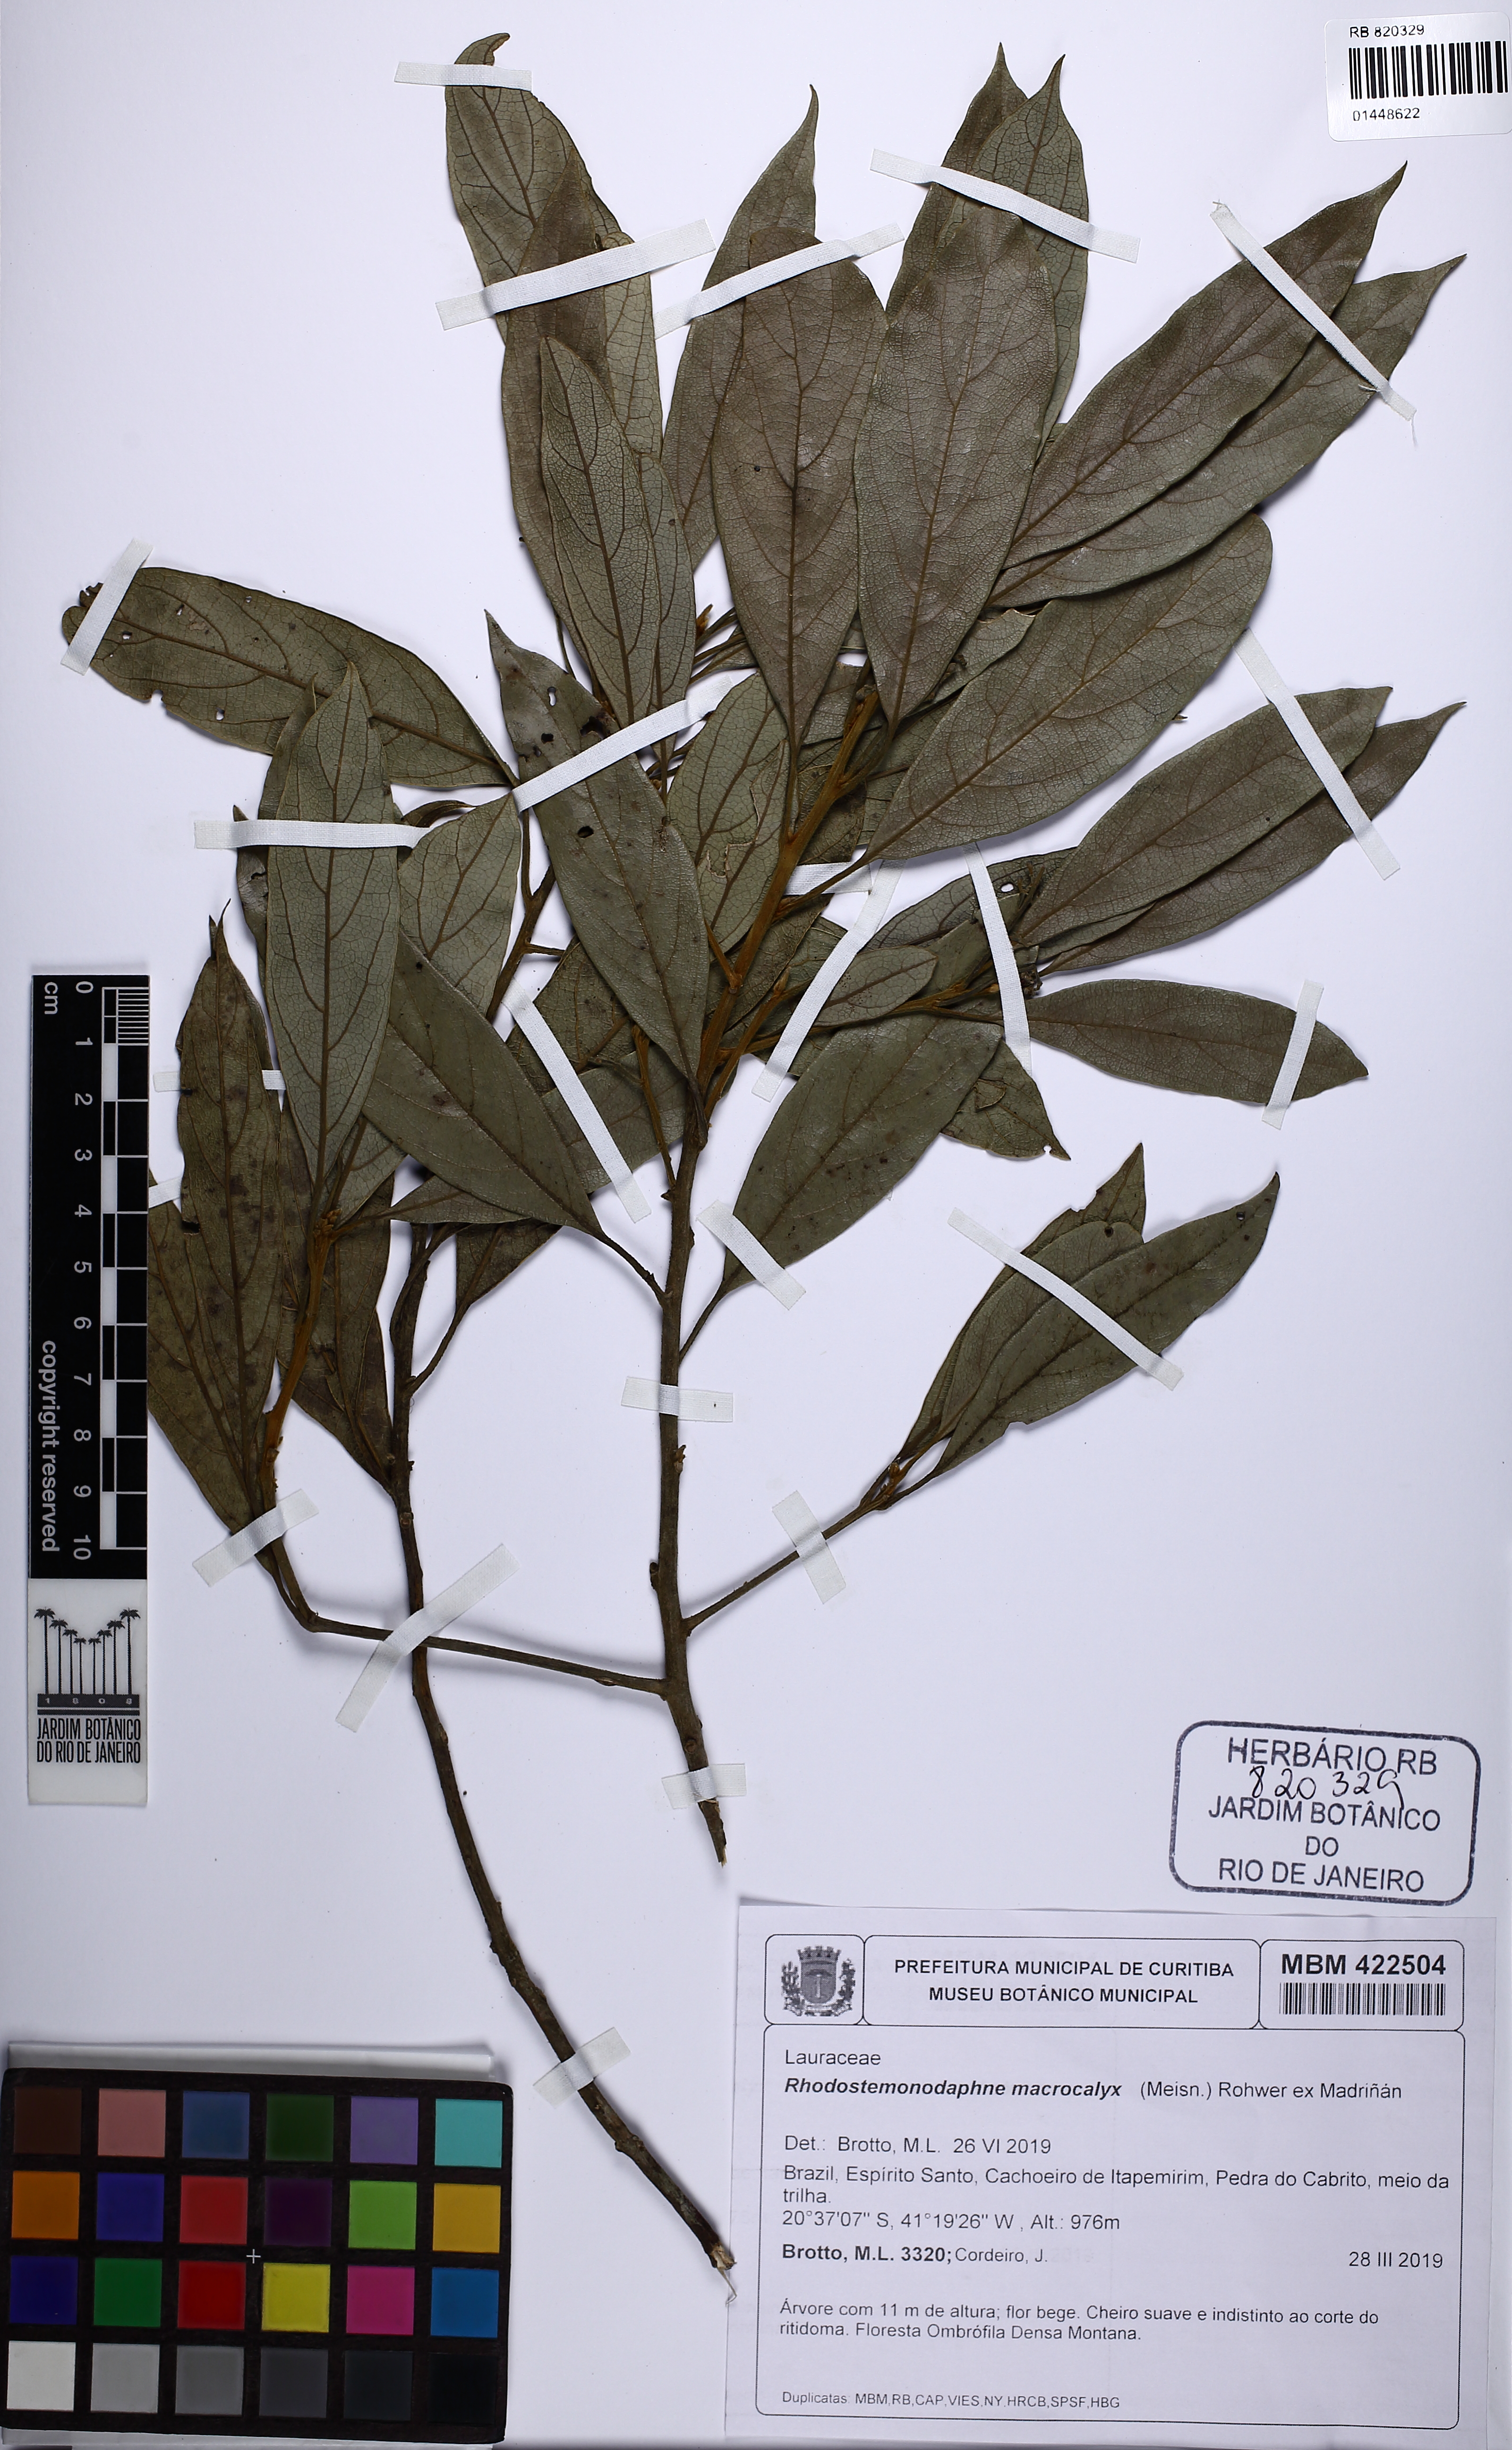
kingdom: Plantae
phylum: Tracheophyta
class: Magnoliopsida
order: Laurales
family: Lauraceae
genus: Rhodostemonodaphne
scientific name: Rhodostemonodaphne macrocalyx
